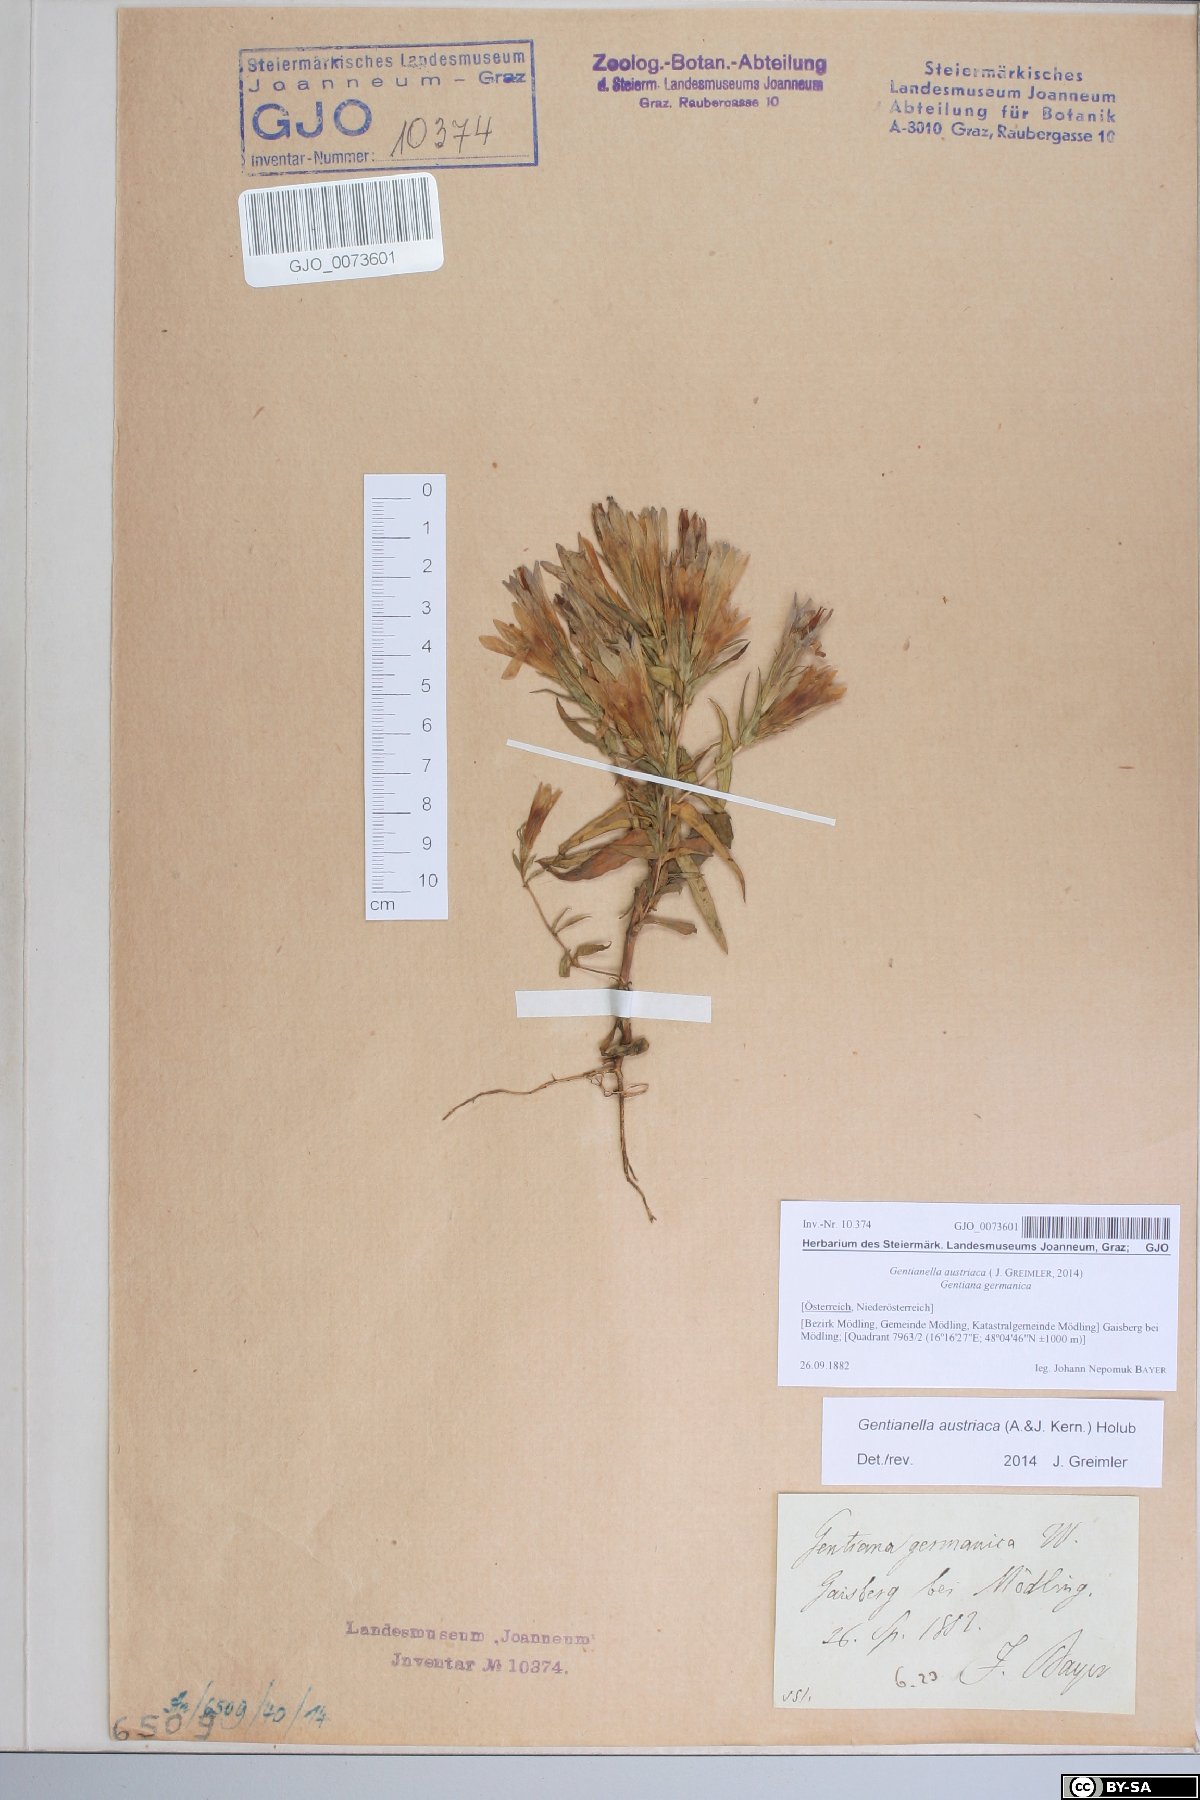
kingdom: Plantae
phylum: Tracheophyta
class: Magnoliopsida
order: Gentianales
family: Gentianaceae
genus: Gentianella
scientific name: Gentianella austriaca
